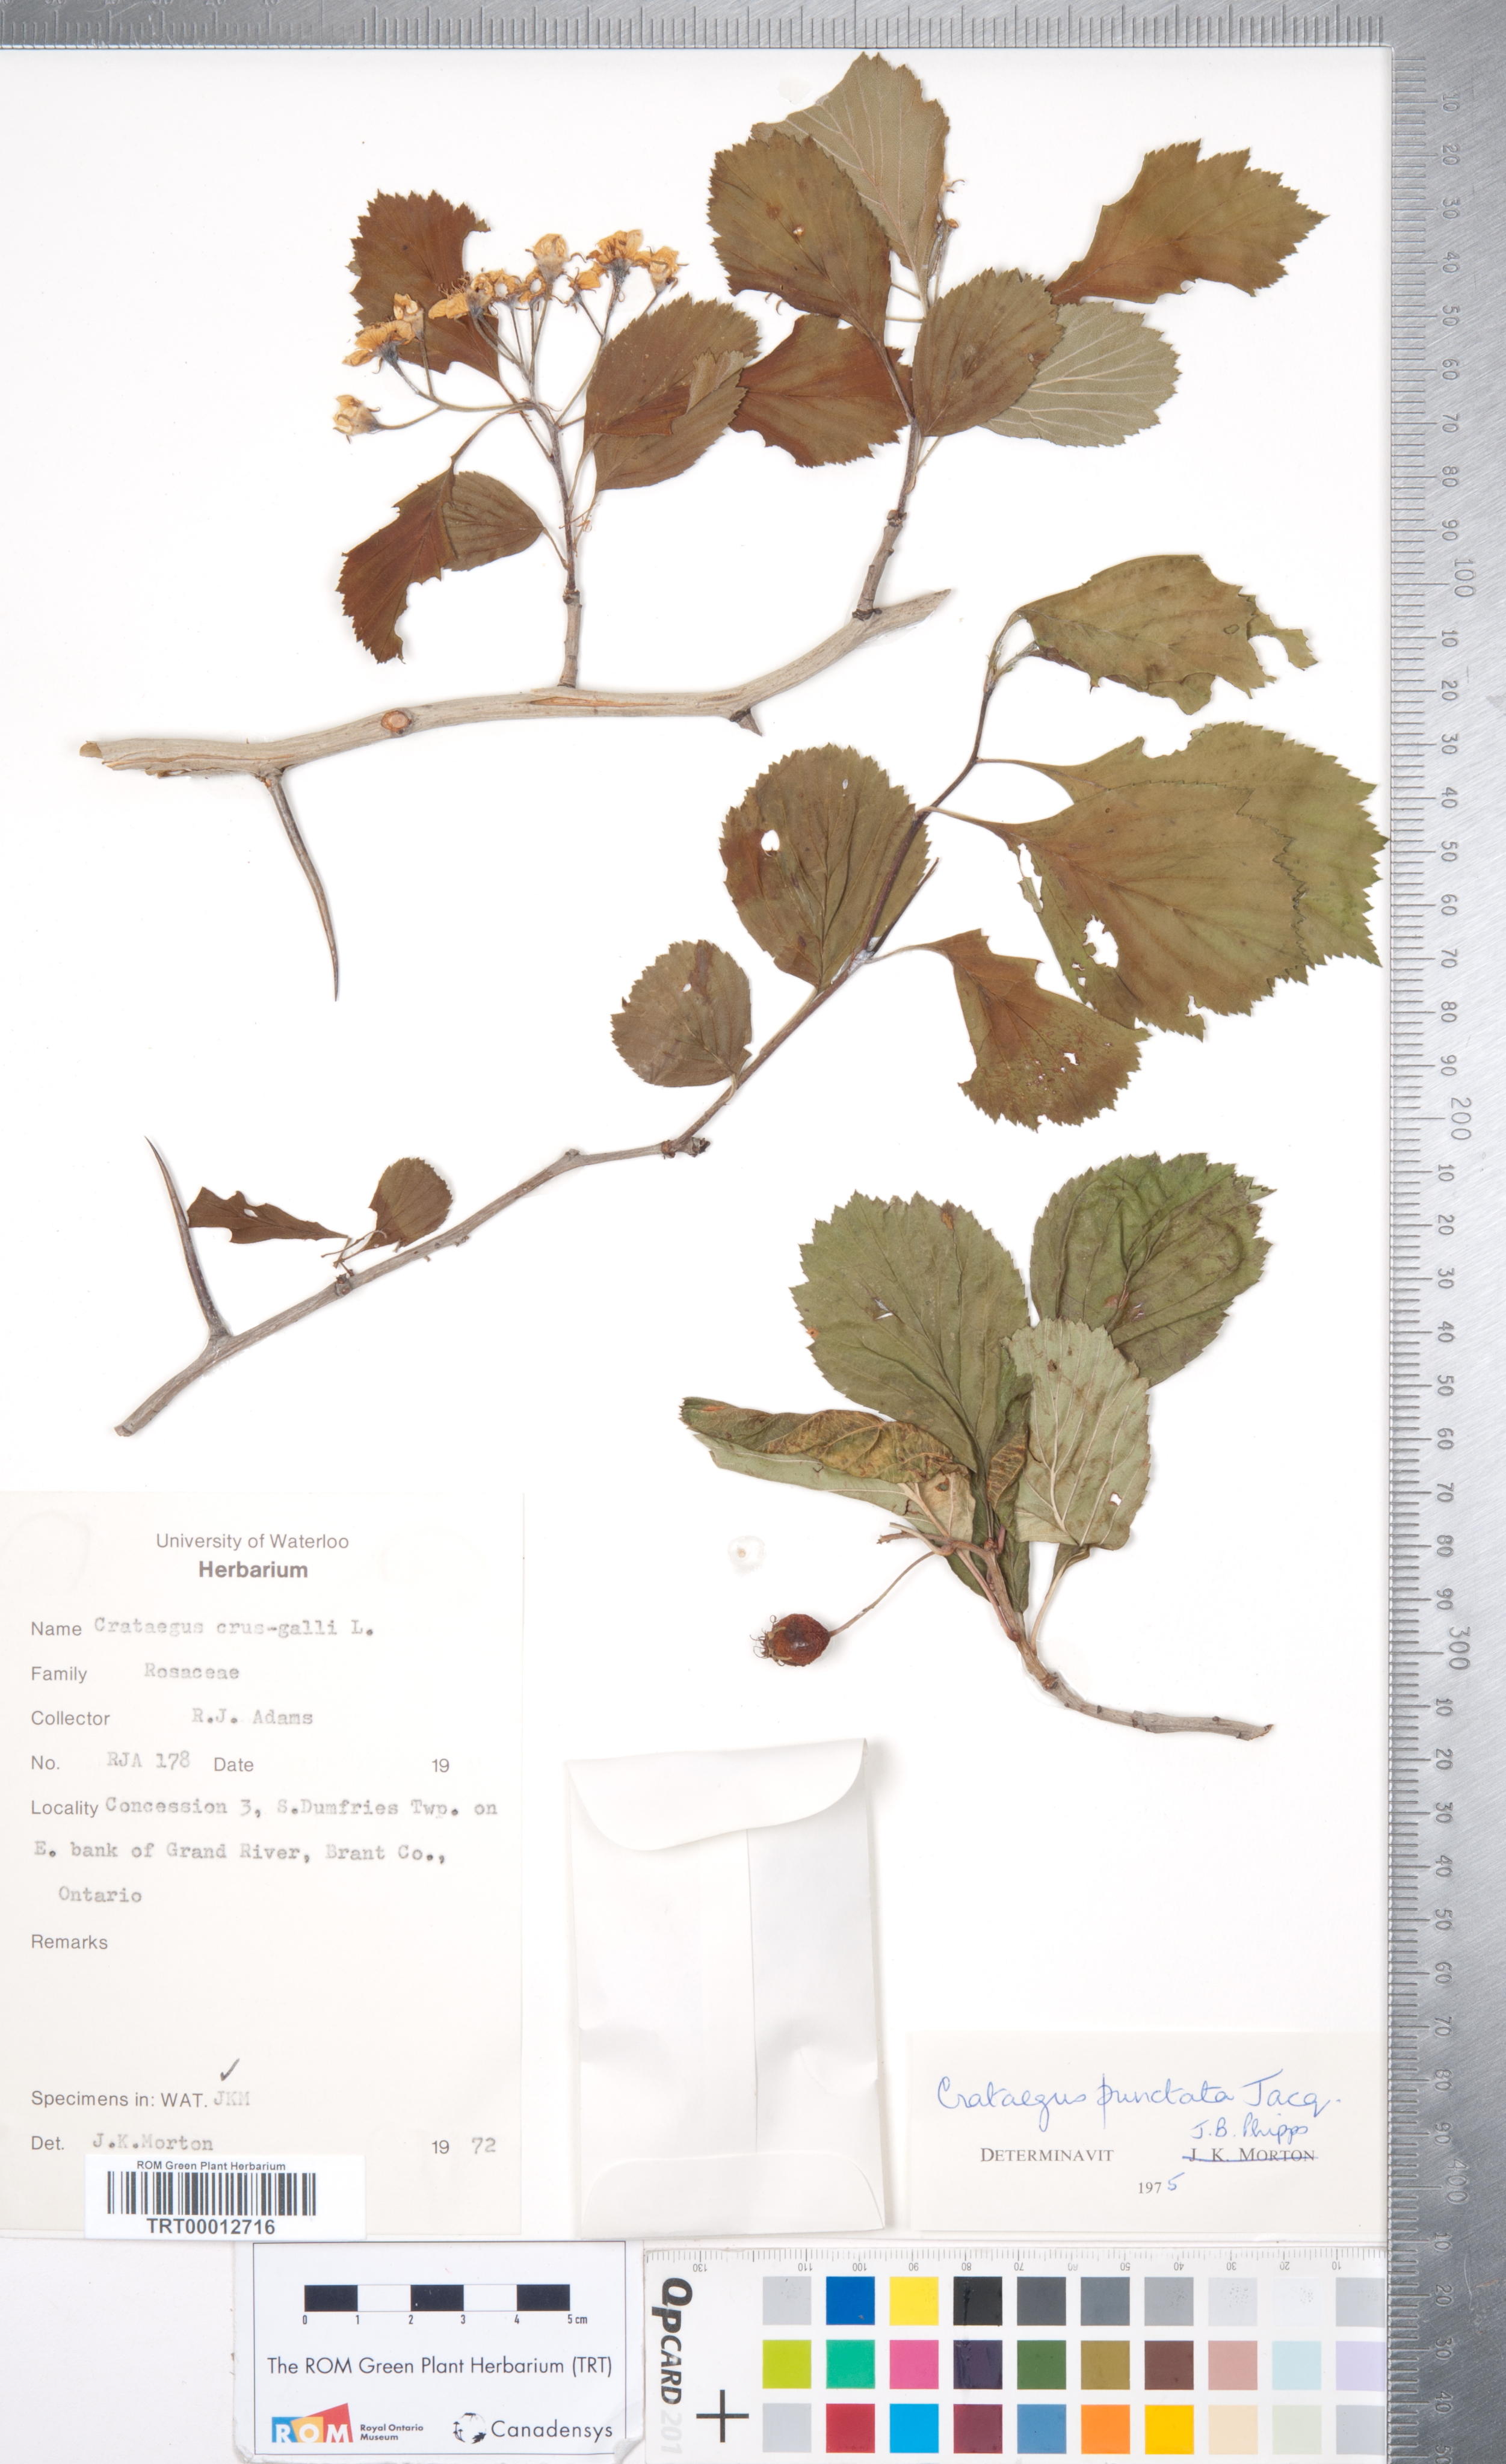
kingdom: Plantae
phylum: Tracheophyta
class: Magnoliopsida
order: Rosales
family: Rosaceae
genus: Crataegus
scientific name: Crataegus crus-galli
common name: Cockspurthorn
